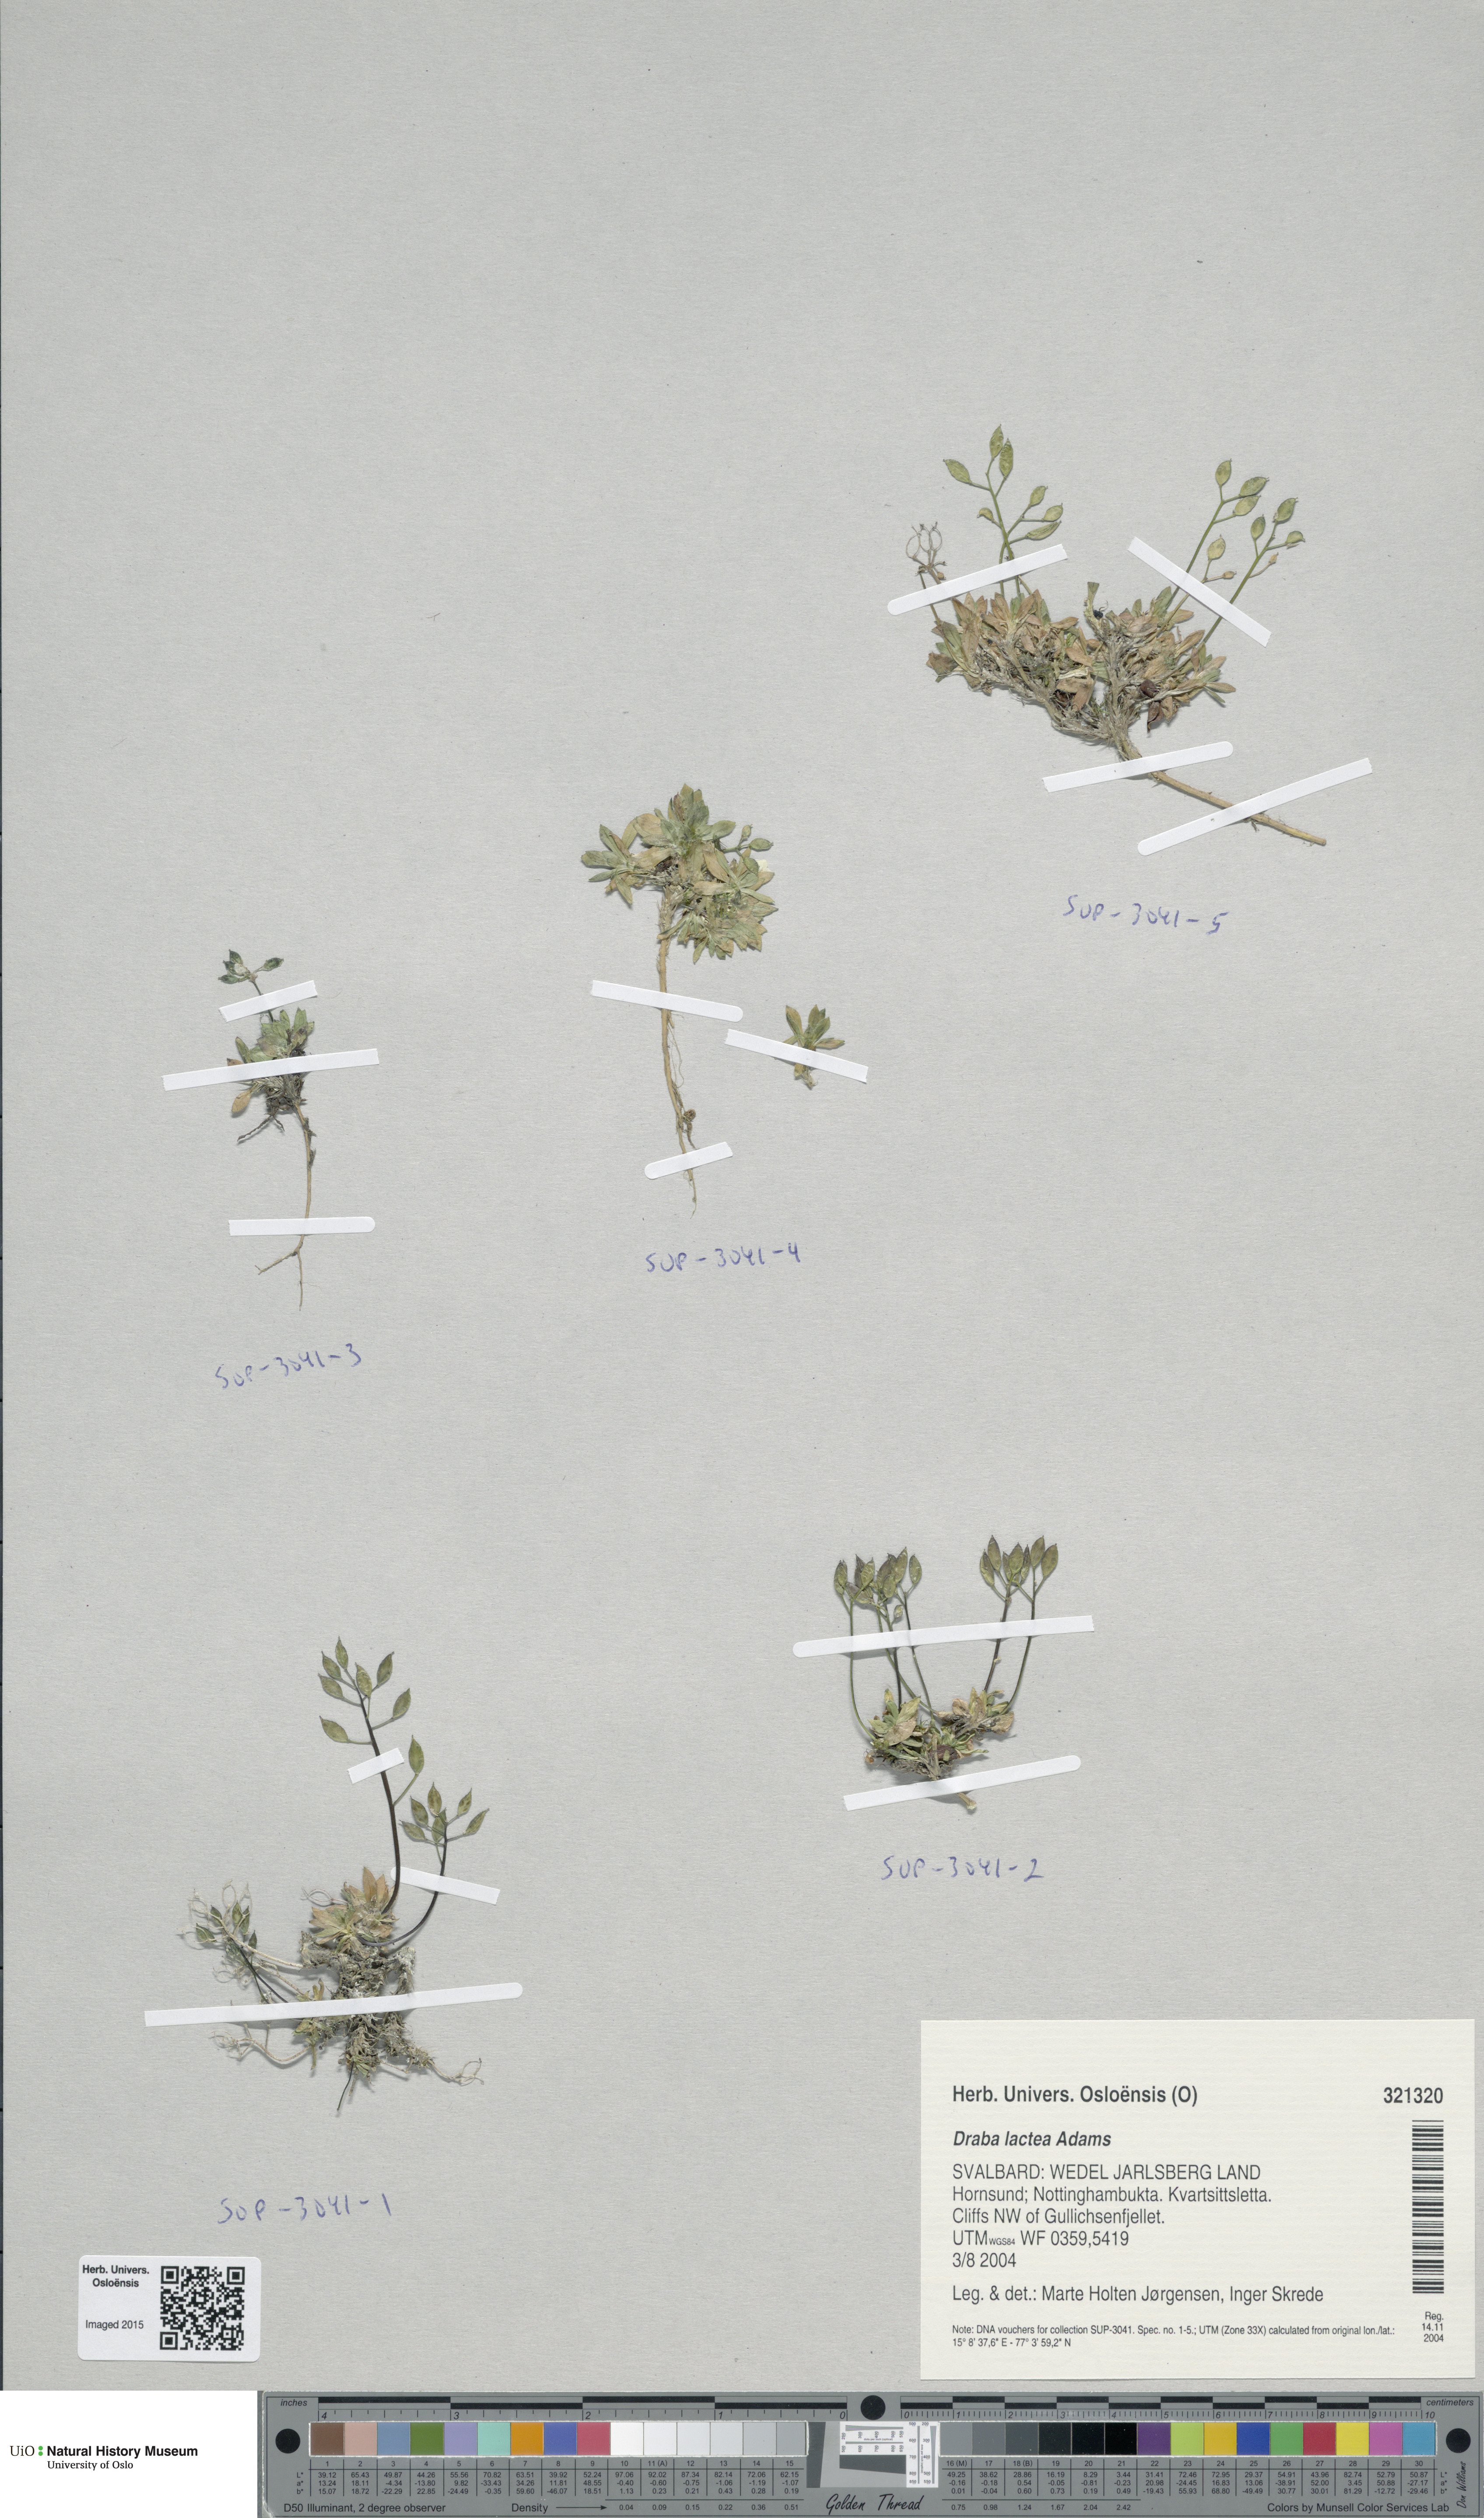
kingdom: Plantae
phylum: Tracheophyta
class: Magnoliopsida
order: Brassicales
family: Brassicaceae
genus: Draba
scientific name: Draba lactea
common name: Milky draba
